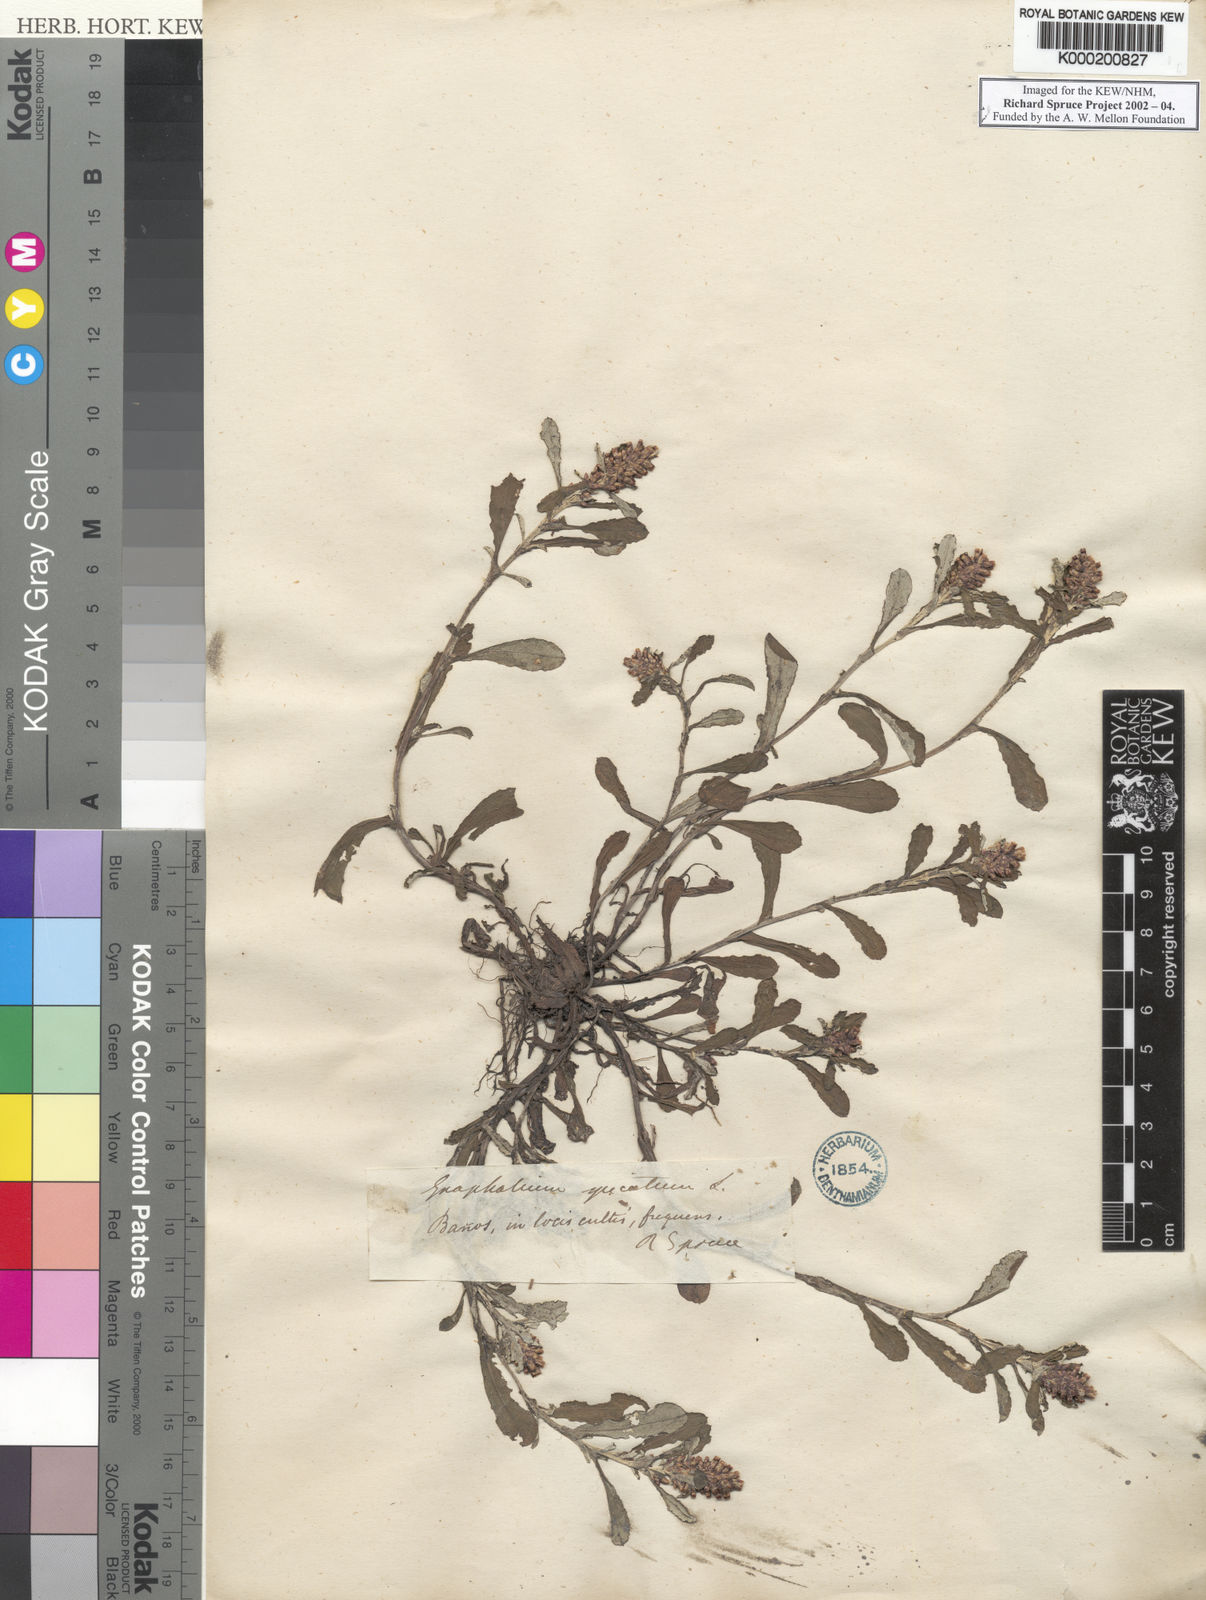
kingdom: Plantae
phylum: Tracheophyta
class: Magnoliopsida
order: Asterales
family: Asteraceae
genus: Gnaphalium
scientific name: Gnaphalium
